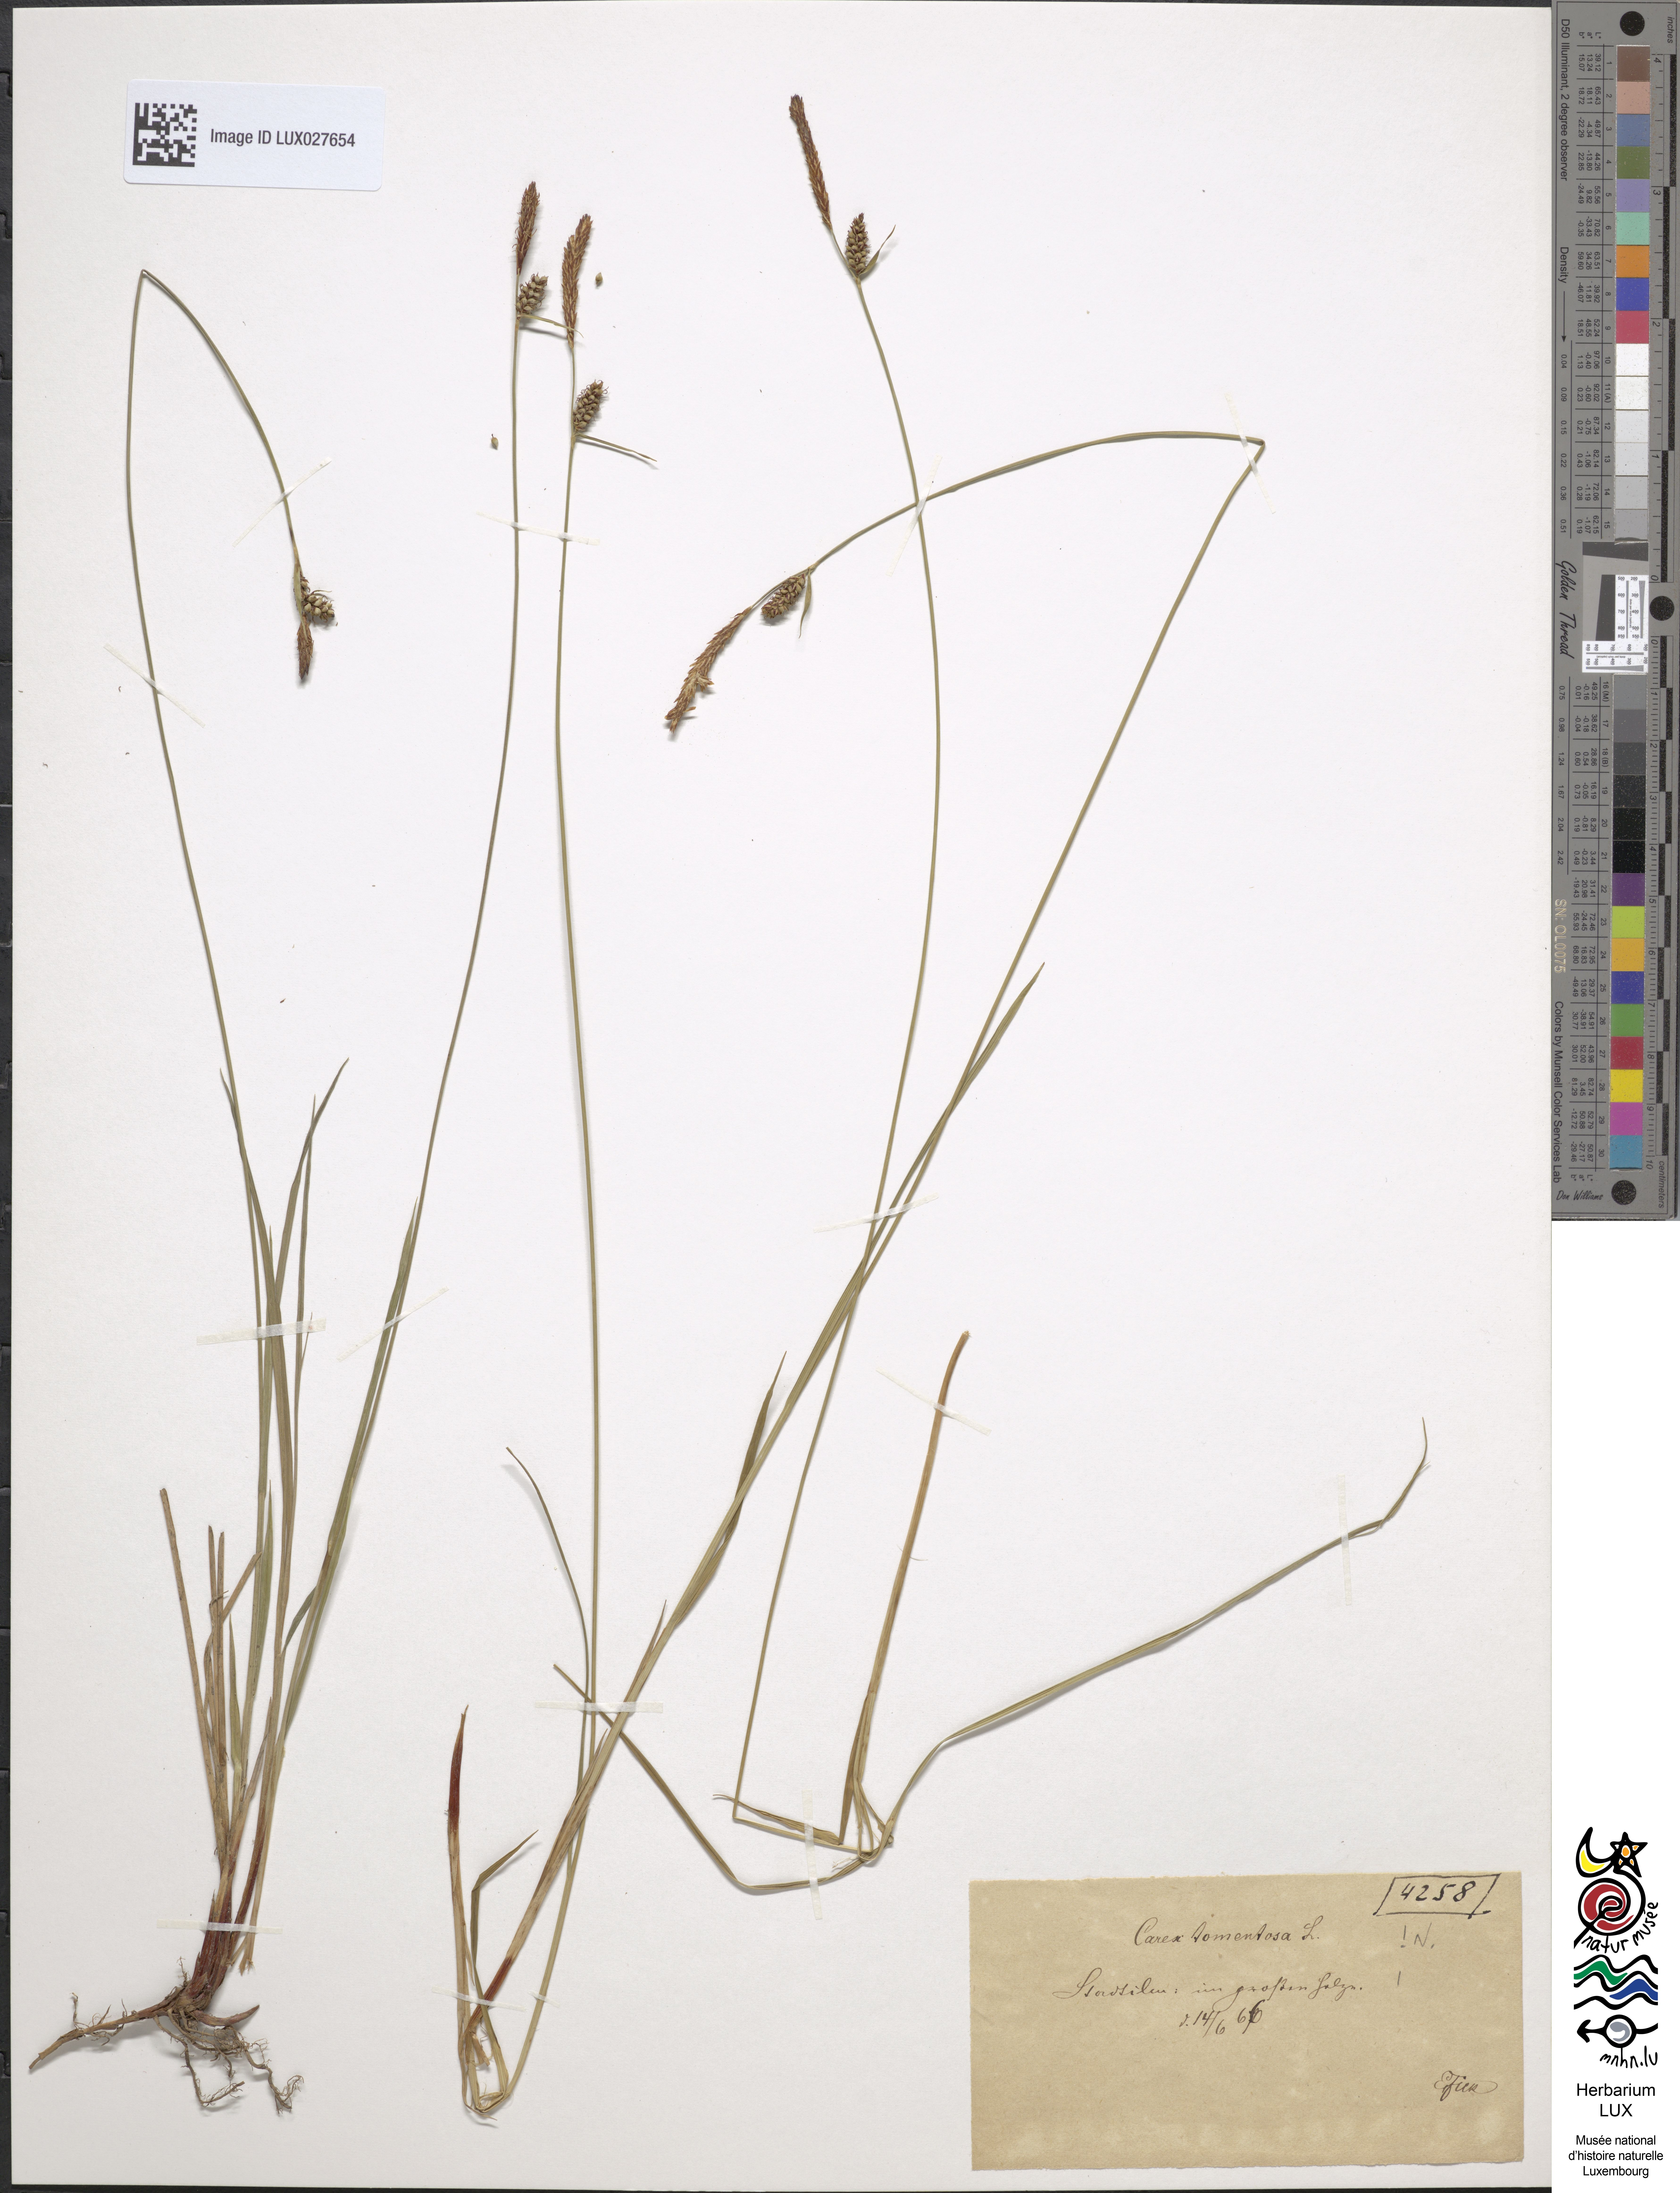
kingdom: Plantae
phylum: Tracheophyta
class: Liliopsida
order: Poales
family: Cyperaceae
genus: Carex
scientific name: Carex tomentosa
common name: Downy-fruited sedge
